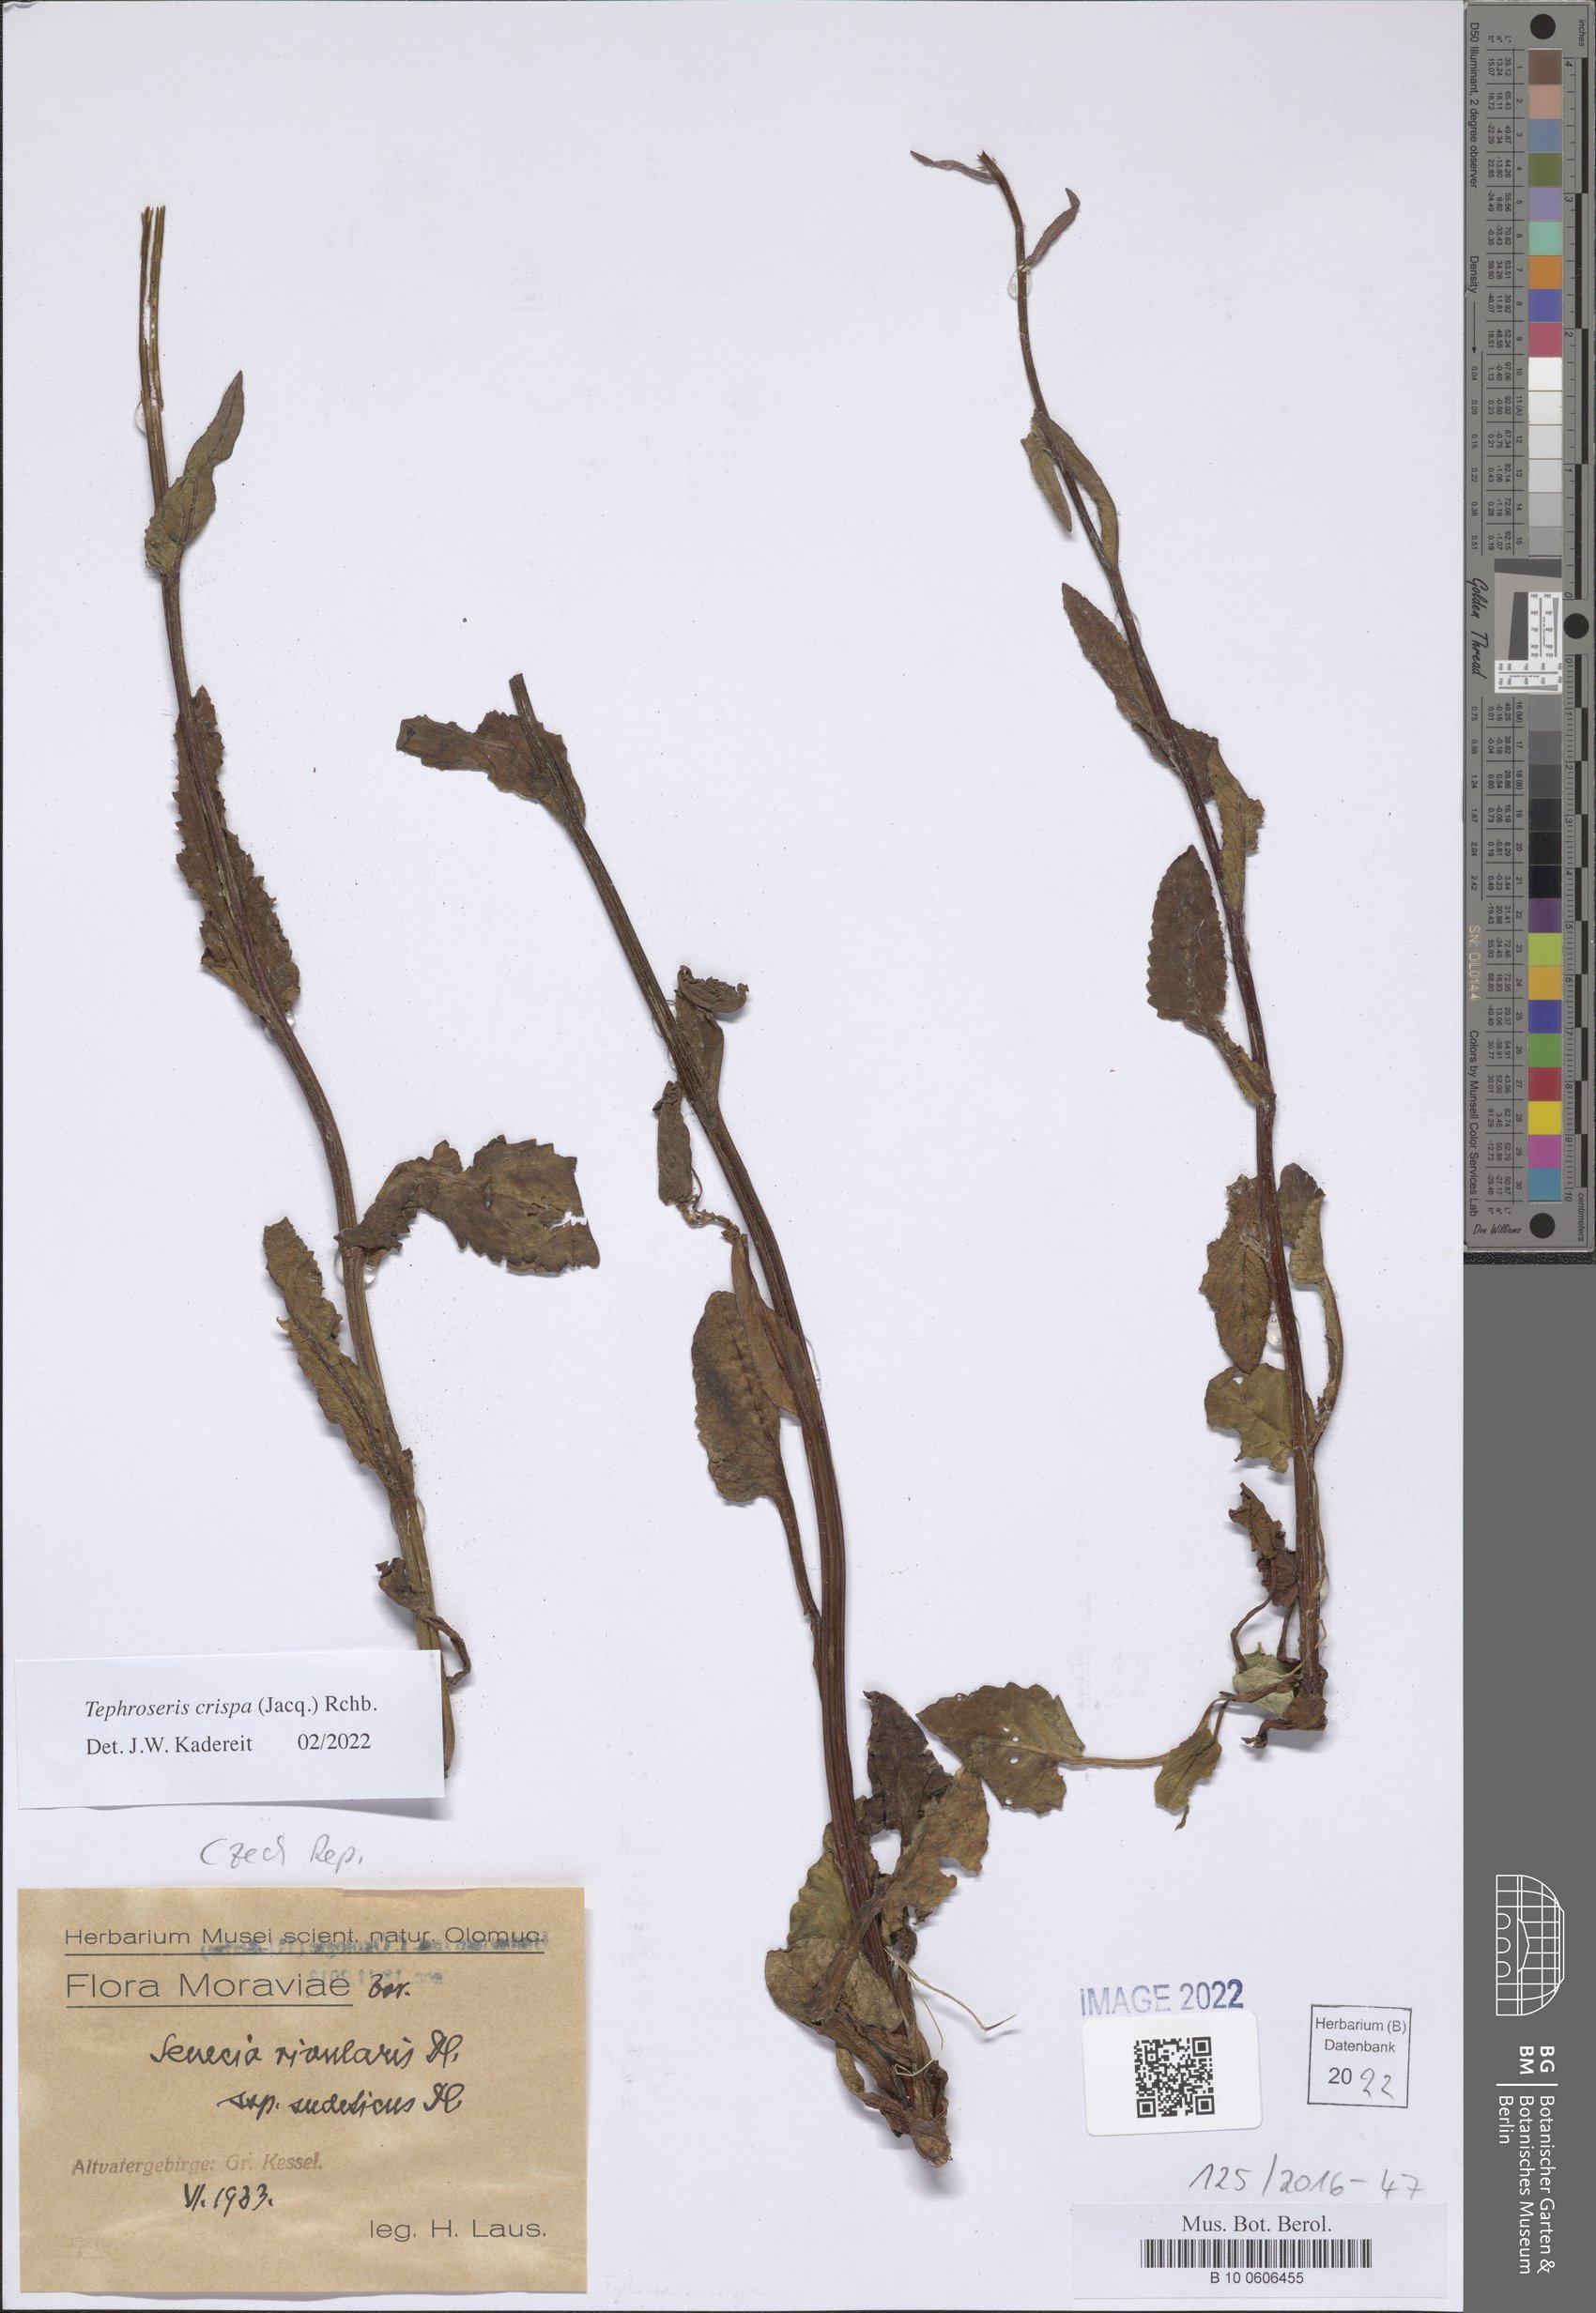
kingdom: Plantae
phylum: Tracheophyta
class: Magnoliopsida
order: Asterales
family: Asteraceae
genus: Tephroseris
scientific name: Tephroseris crispa
